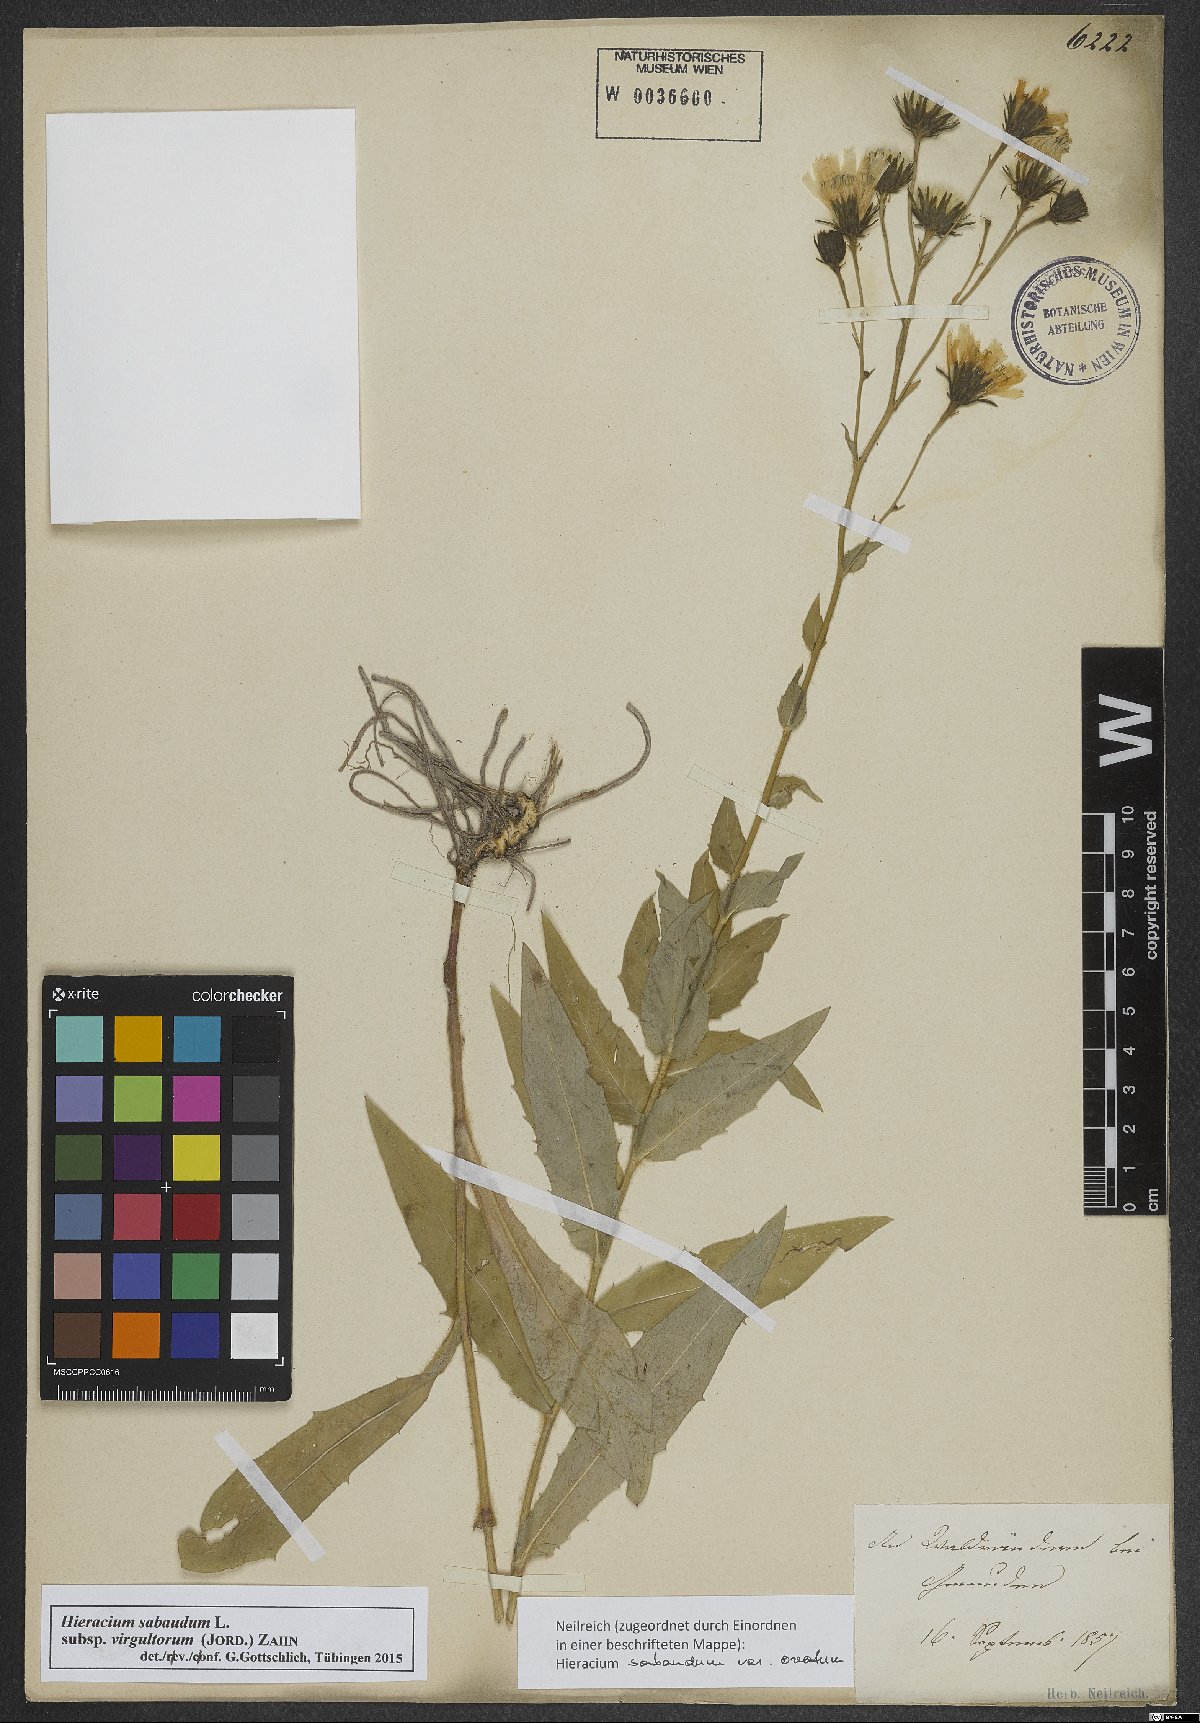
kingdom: Plantae
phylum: Tracheophyta
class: Magnoliopsida
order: Asterales
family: Asteraceae
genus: Hieracium
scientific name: Hieracium sabaudum
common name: New england hawkweed
